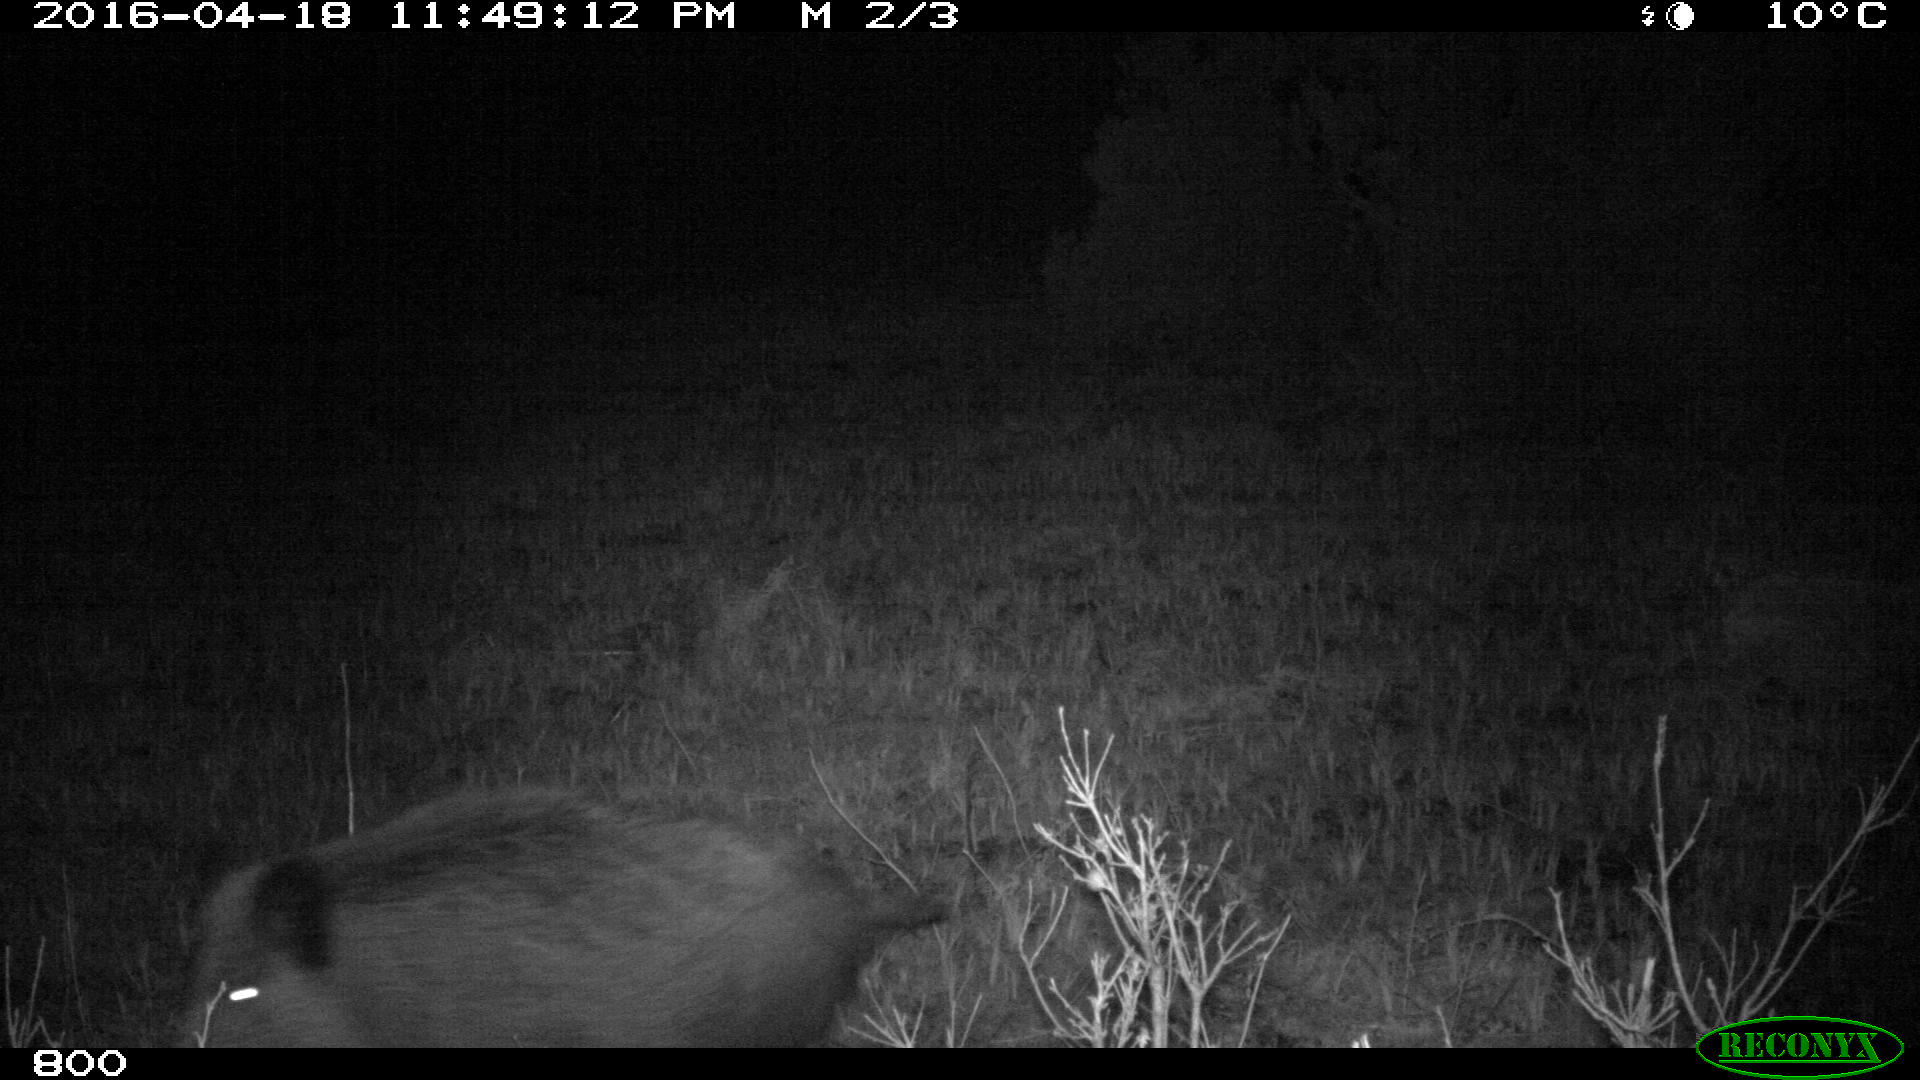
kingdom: Animalia
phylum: Chordata
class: Mammalia
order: Artiodactyla
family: Suidae
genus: Sus
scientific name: Sus scrofa
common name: Wild boar
